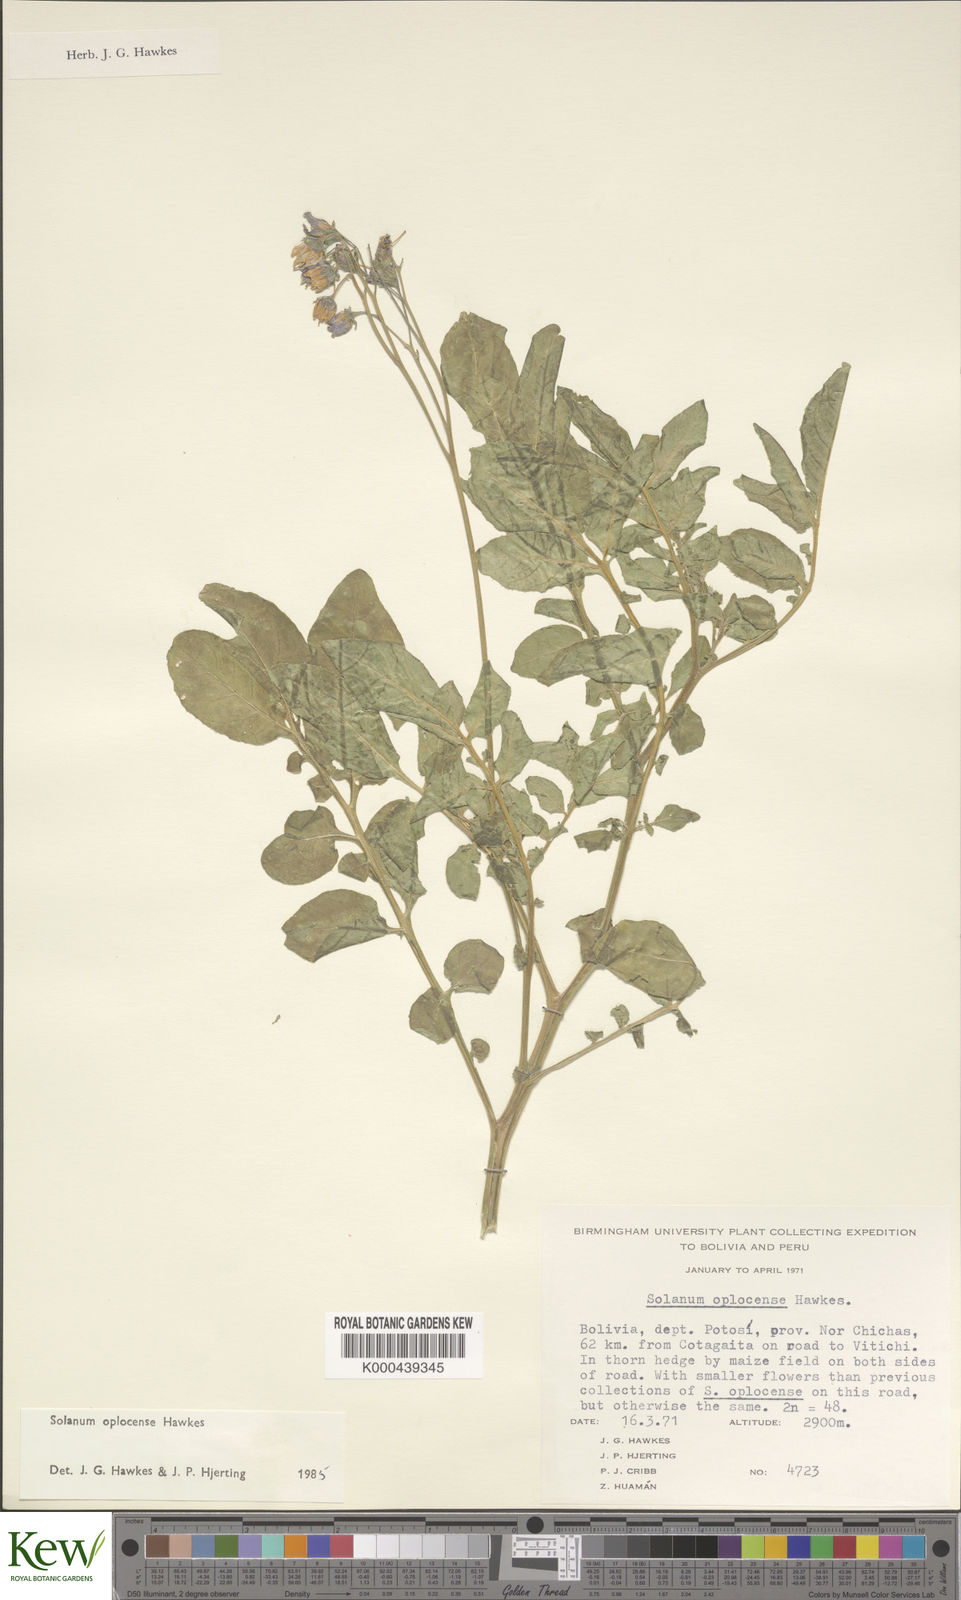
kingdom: Plantae
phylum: Tracheophyta
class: Magnoliopsida
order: Solanales
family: Solanaceae
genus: Solanum
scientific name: Solanum brevicaule
